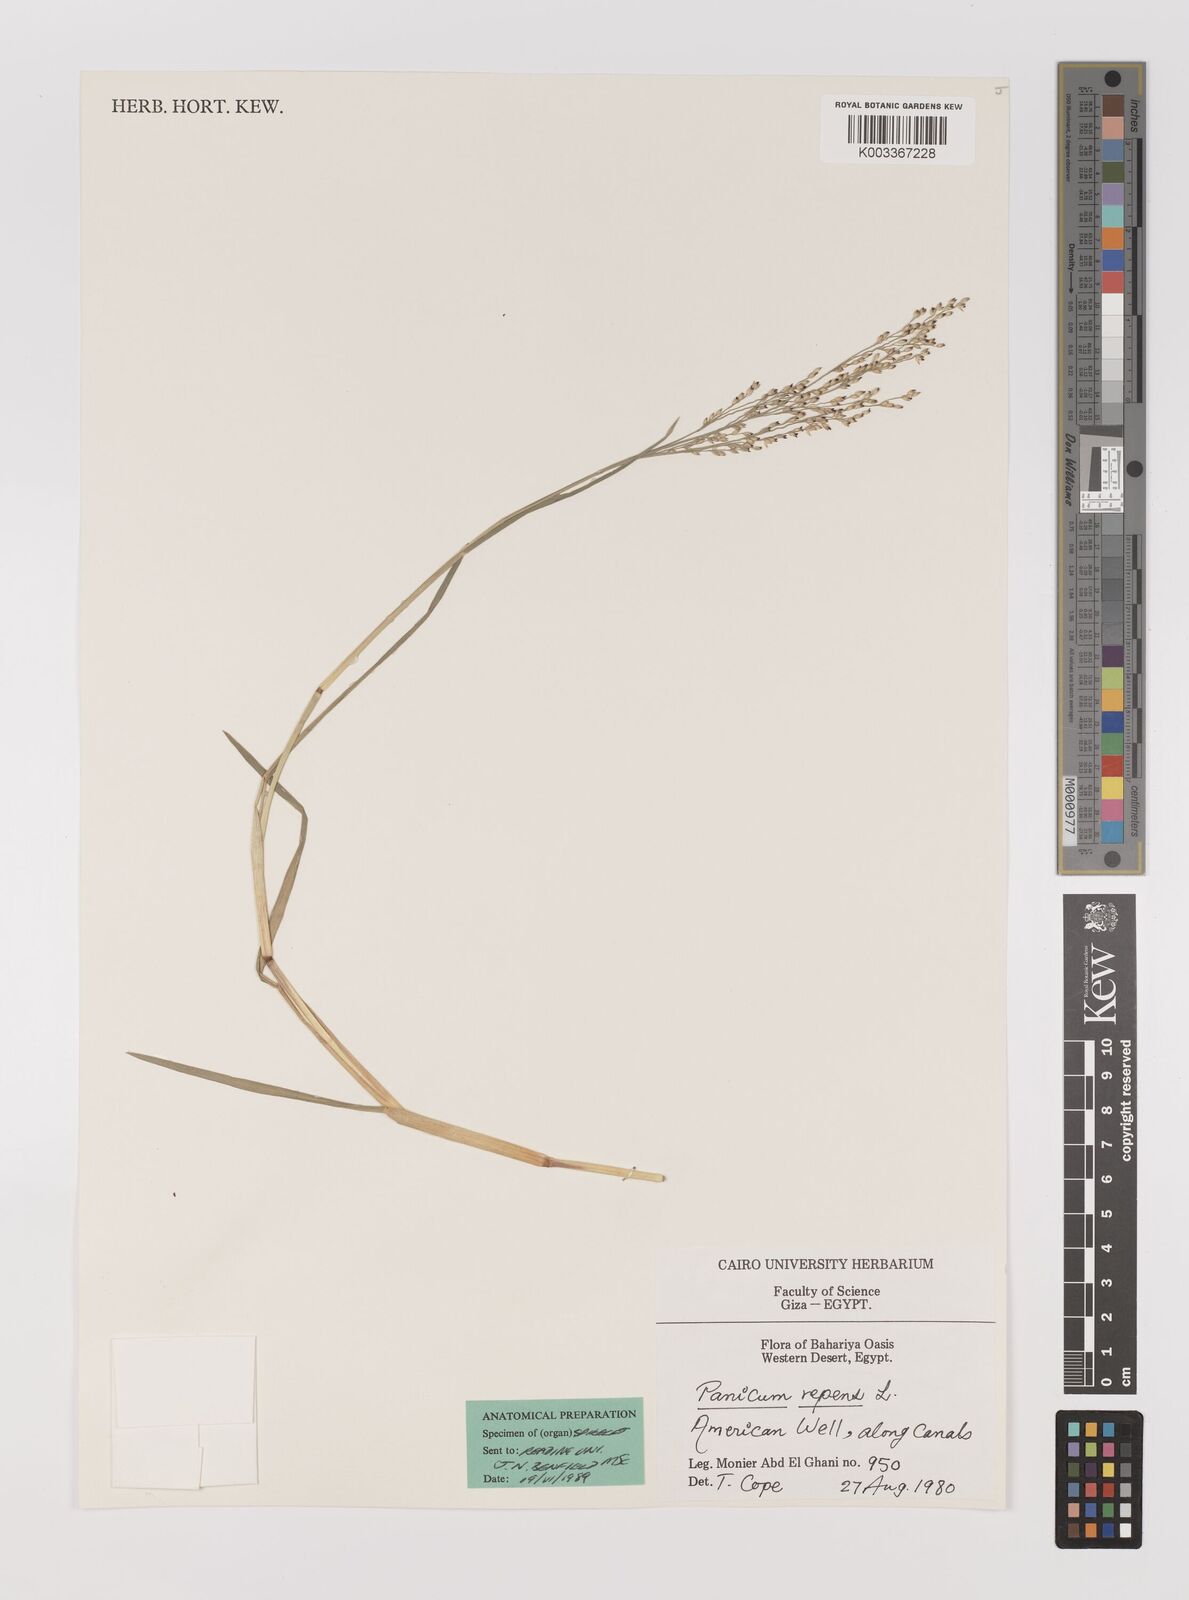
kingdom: Plantae
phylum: Tracheophyta
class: Liliopsida
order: Poales
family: Poaceae
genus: Panicum
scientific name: Panicum repens
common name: Torpedo grass
